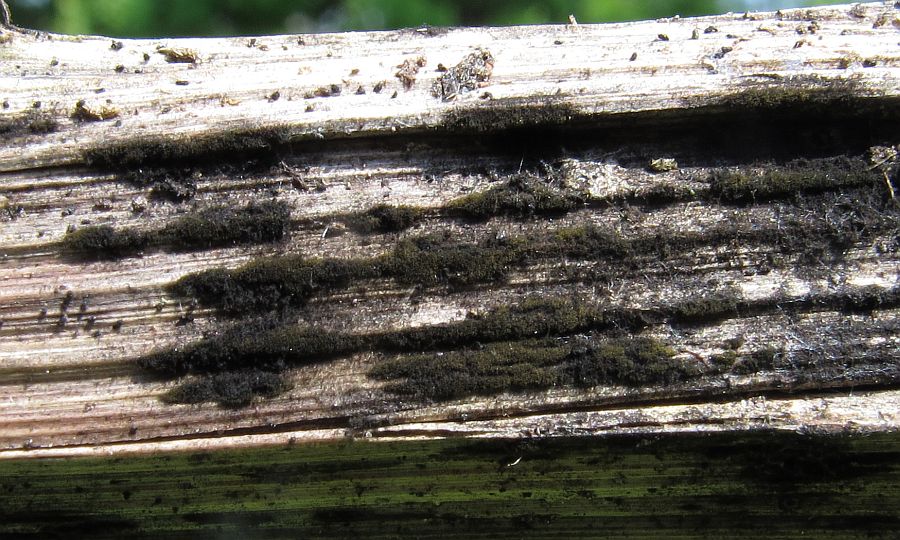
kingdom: Fungi
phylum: Ascomycota
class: Dothideomycetes
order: Pleosporales
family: Torulaceae
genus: Torula
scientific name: Torula herbarum
